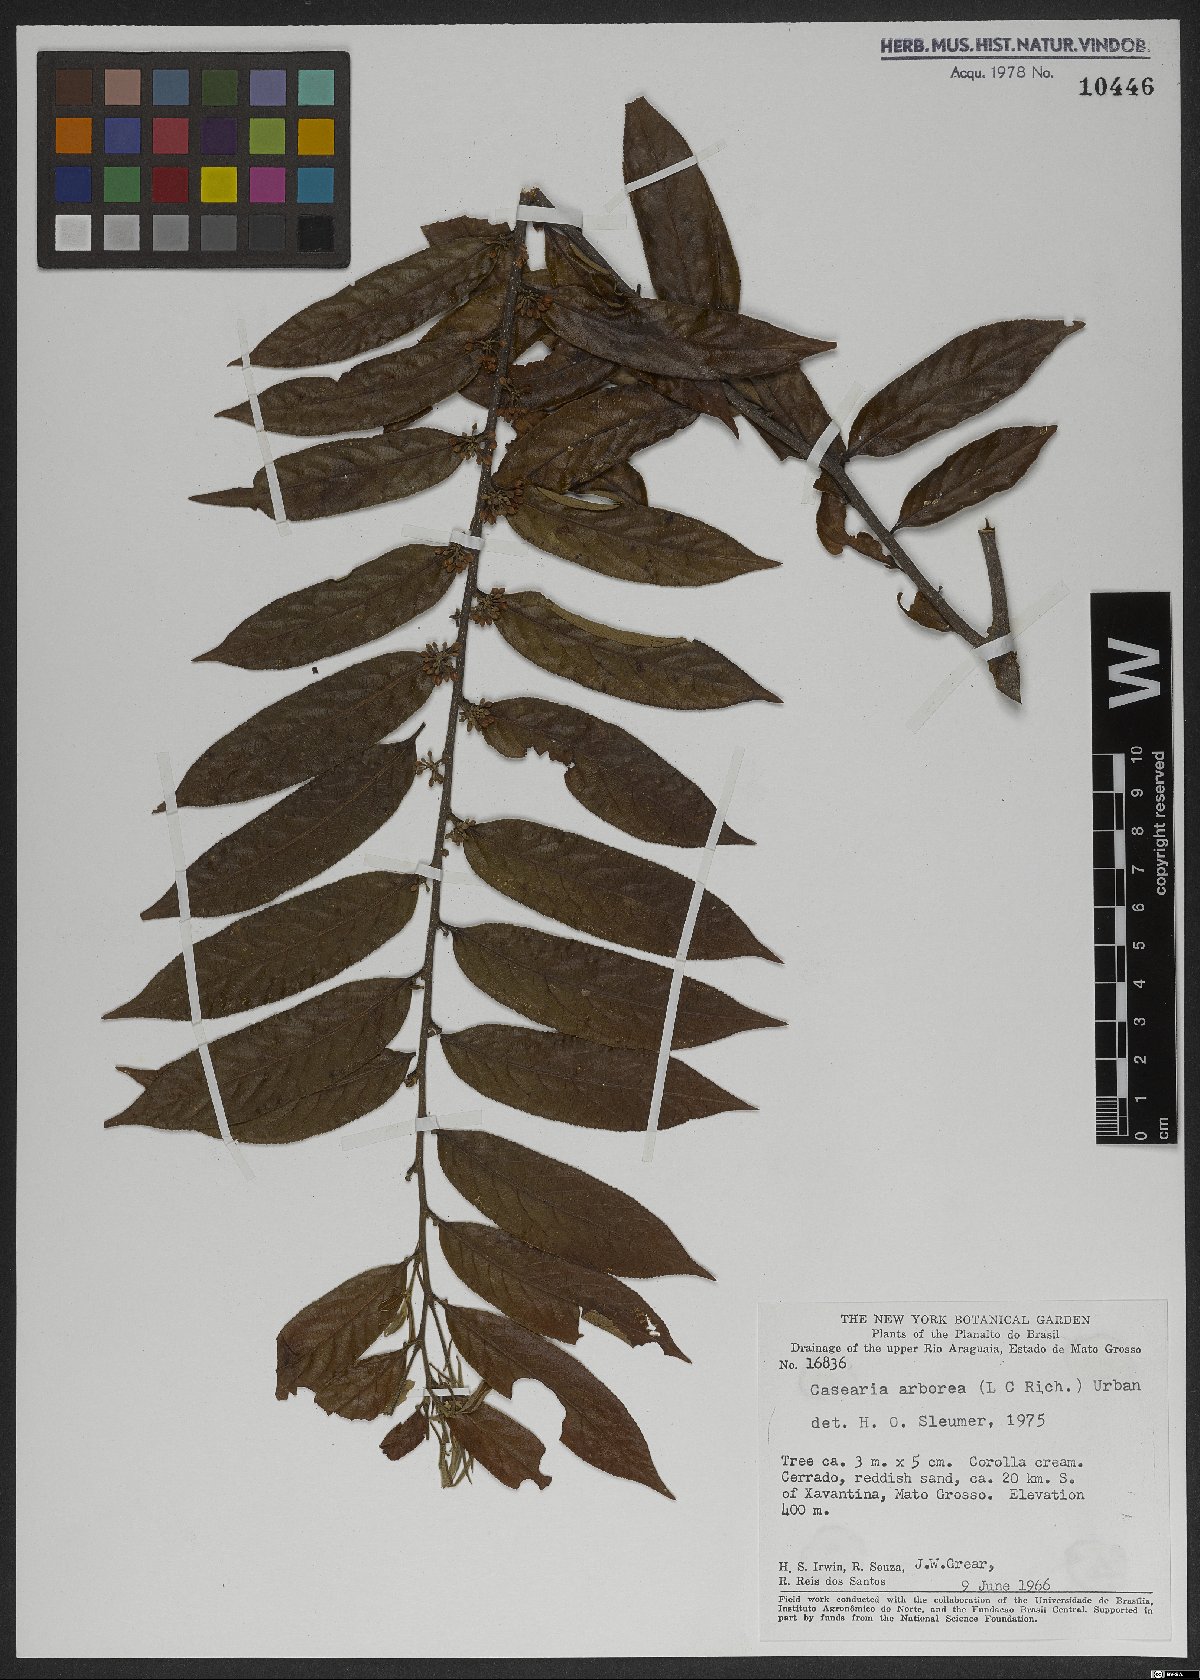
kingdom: Plantae
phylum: Tracheophyta
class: Magnoliopsida
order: Malpighiales
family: Salicaceae
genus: Casearia
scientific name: Casearia arborea
